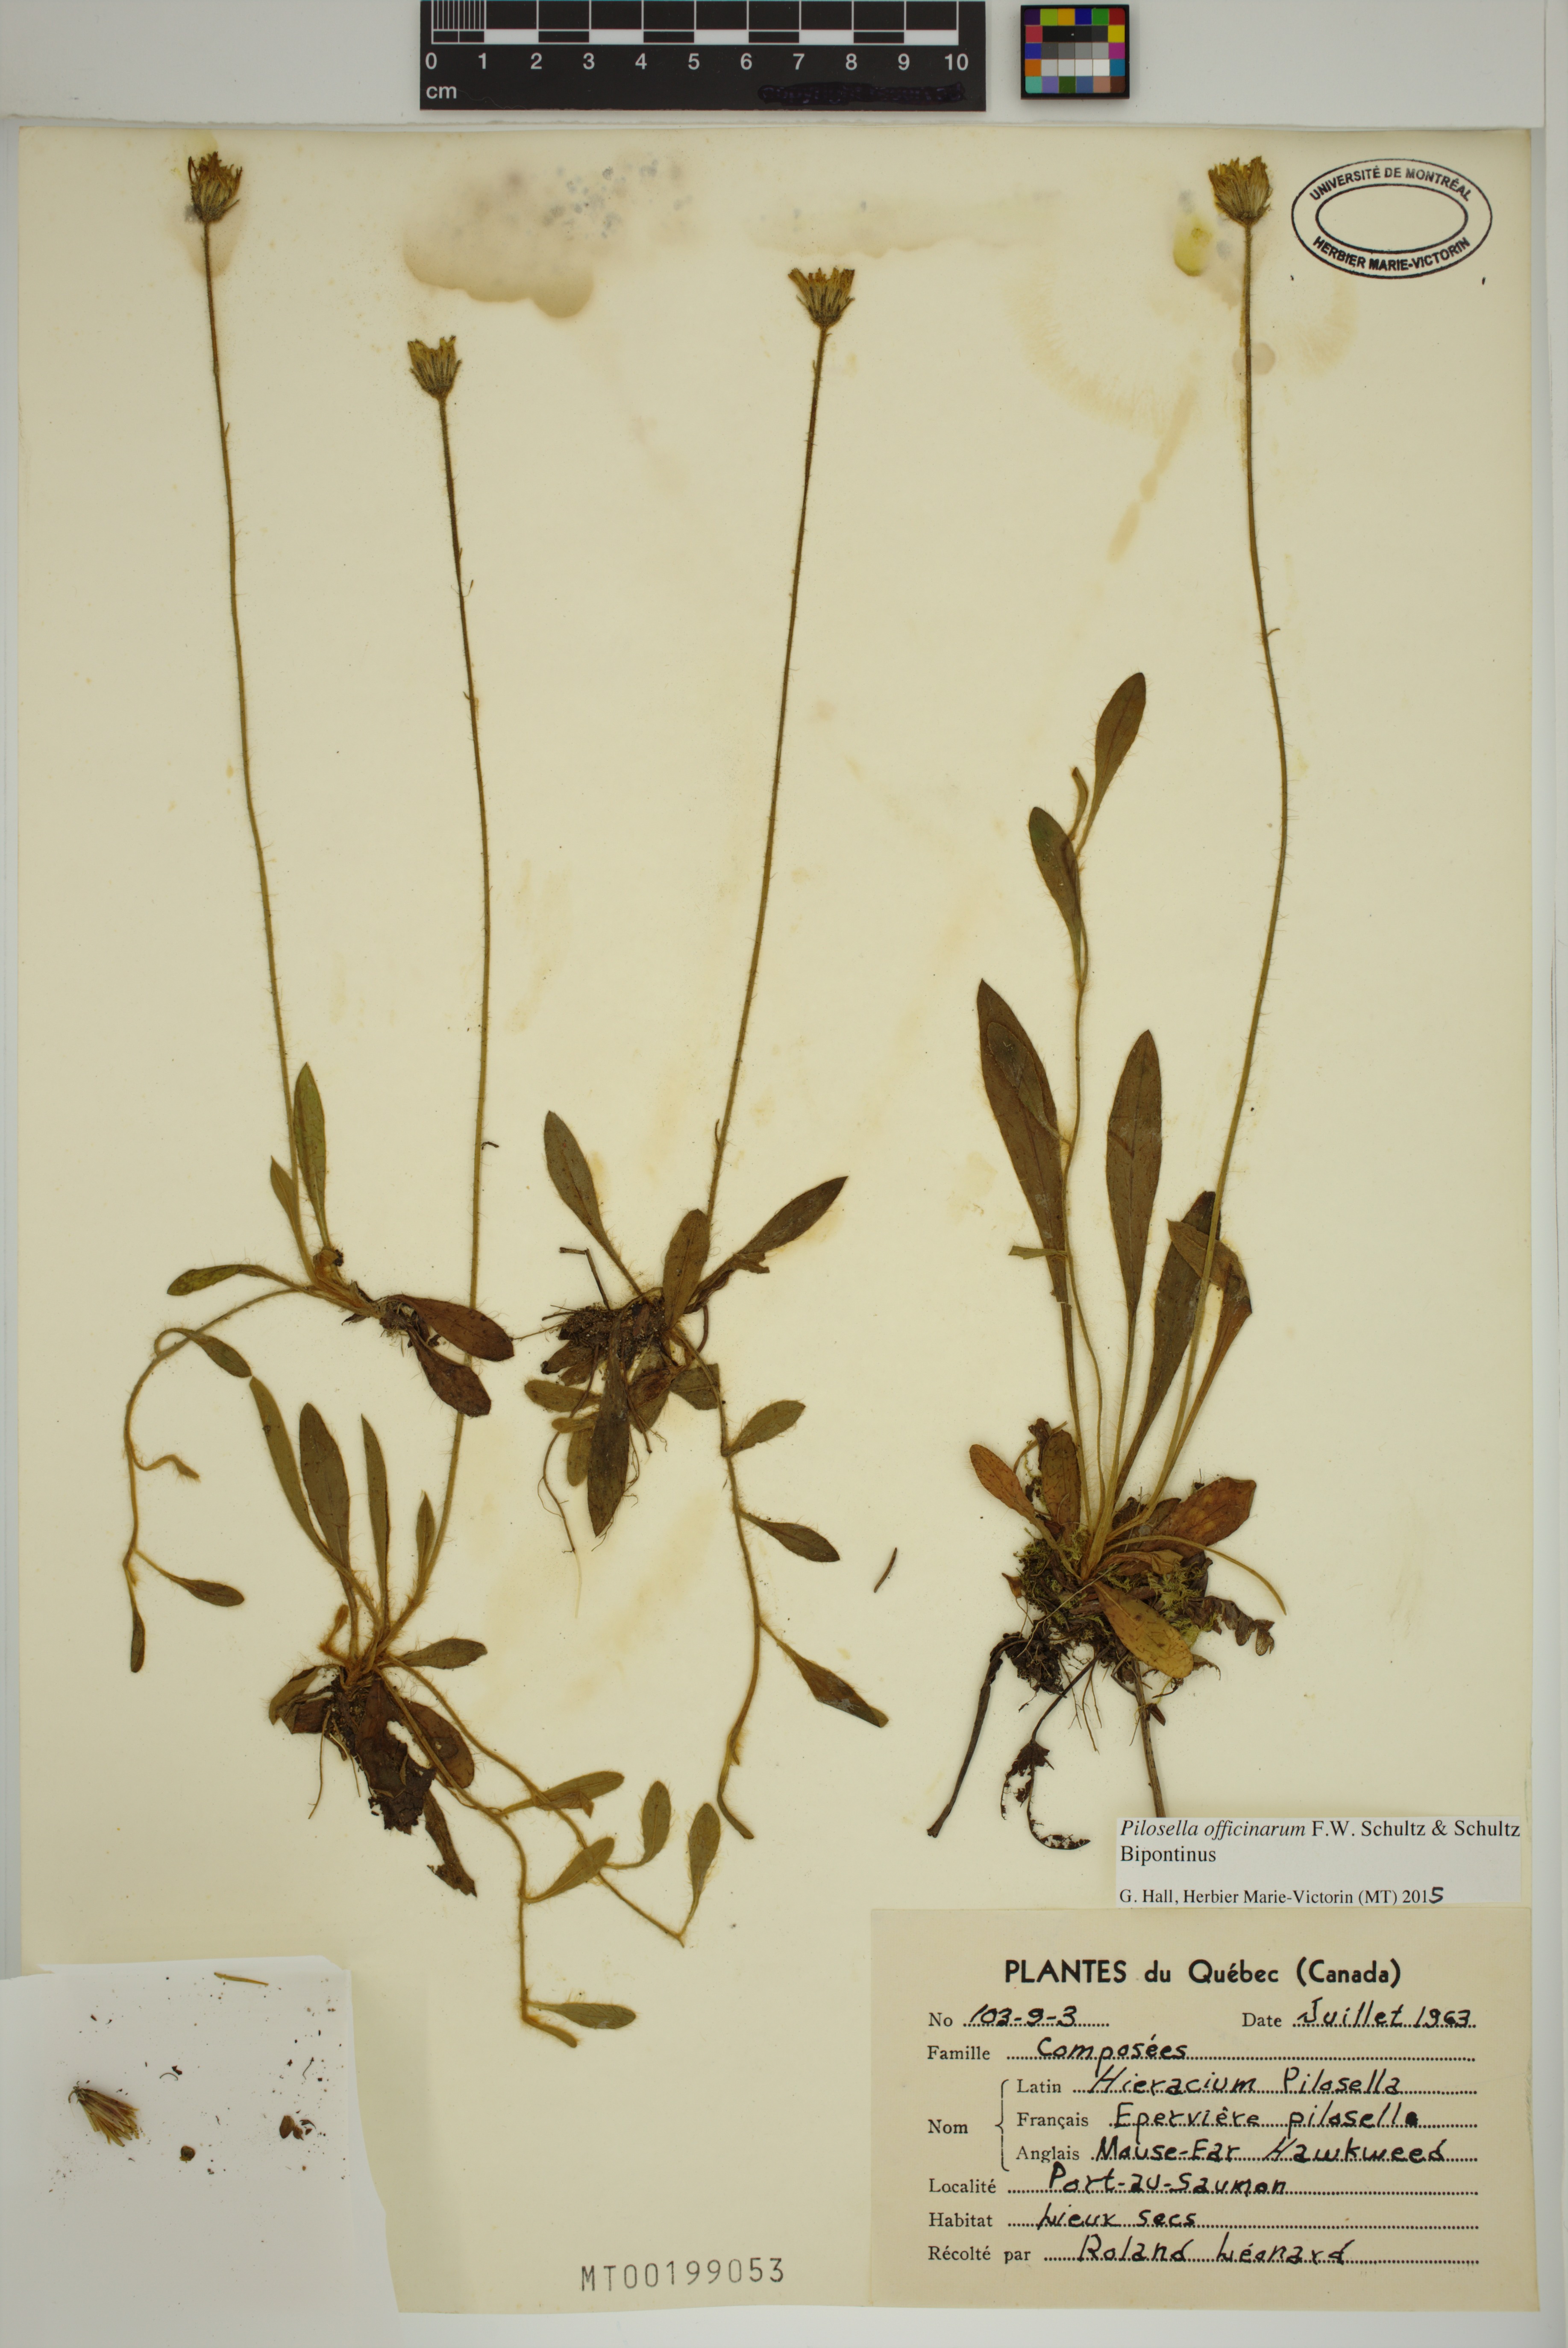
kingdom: Plantae
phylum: Tracheophyta
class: Magnoliopsida
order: Asterales
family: Asteraceae
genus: Pilosella
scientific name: Pilosella officinarum
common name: Mouse-ear hawkweed
